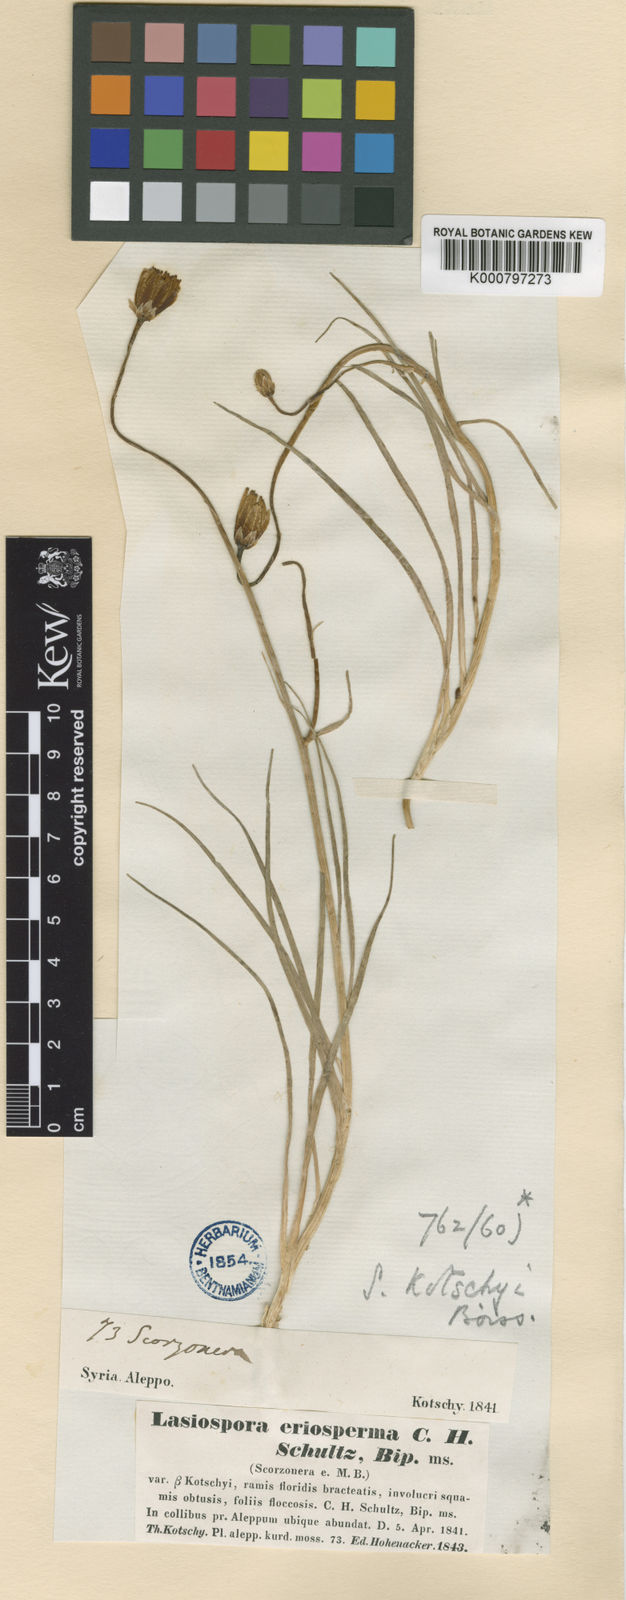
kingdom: Plantae
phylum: Tracheophyta
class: Magnoliopsida
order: Asterales
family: Asteraceae
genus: Turkia
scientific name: Turkia kotschyi
